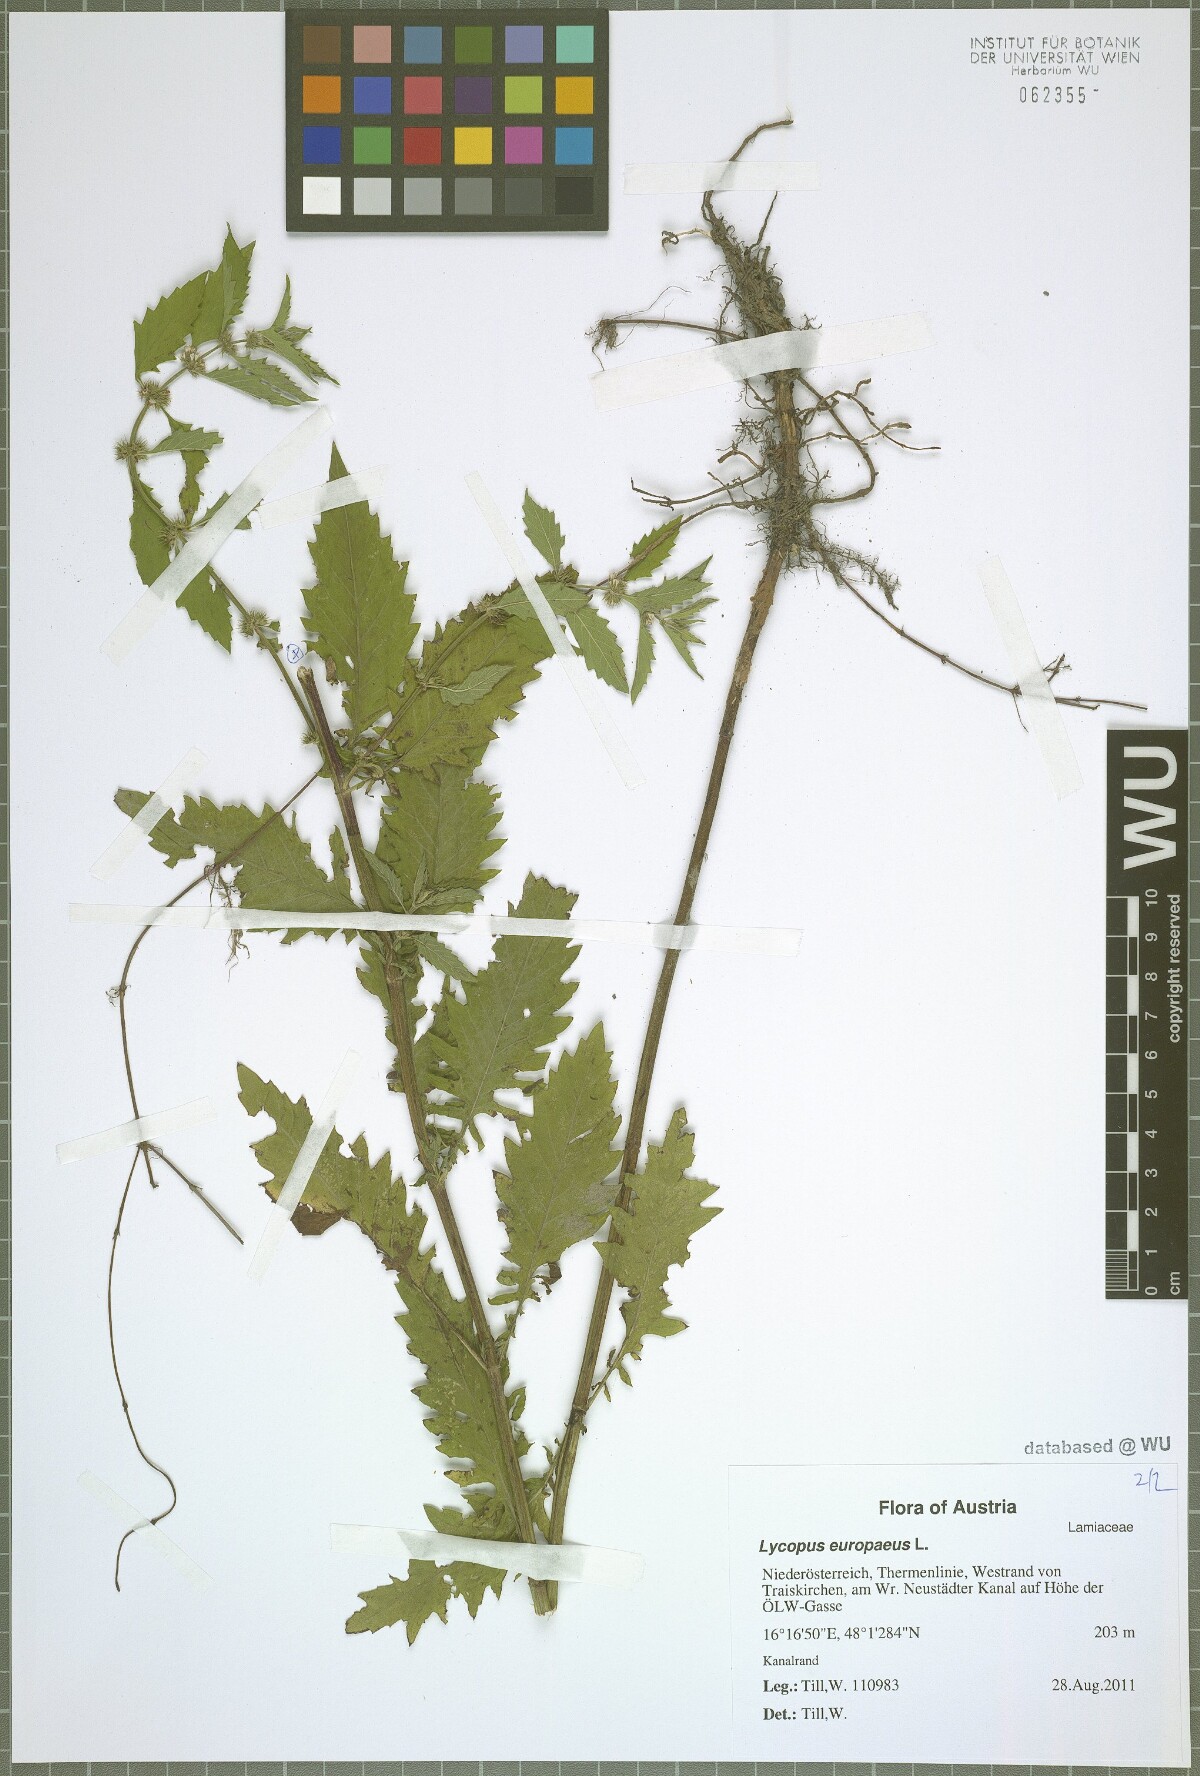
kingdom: Plantae
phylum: Tracheophyta
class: Magnoliopsida
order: Lamiales
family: Lamiaceae
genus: Lycopus
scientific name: Lycopus europaeus
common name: European bugleweed
